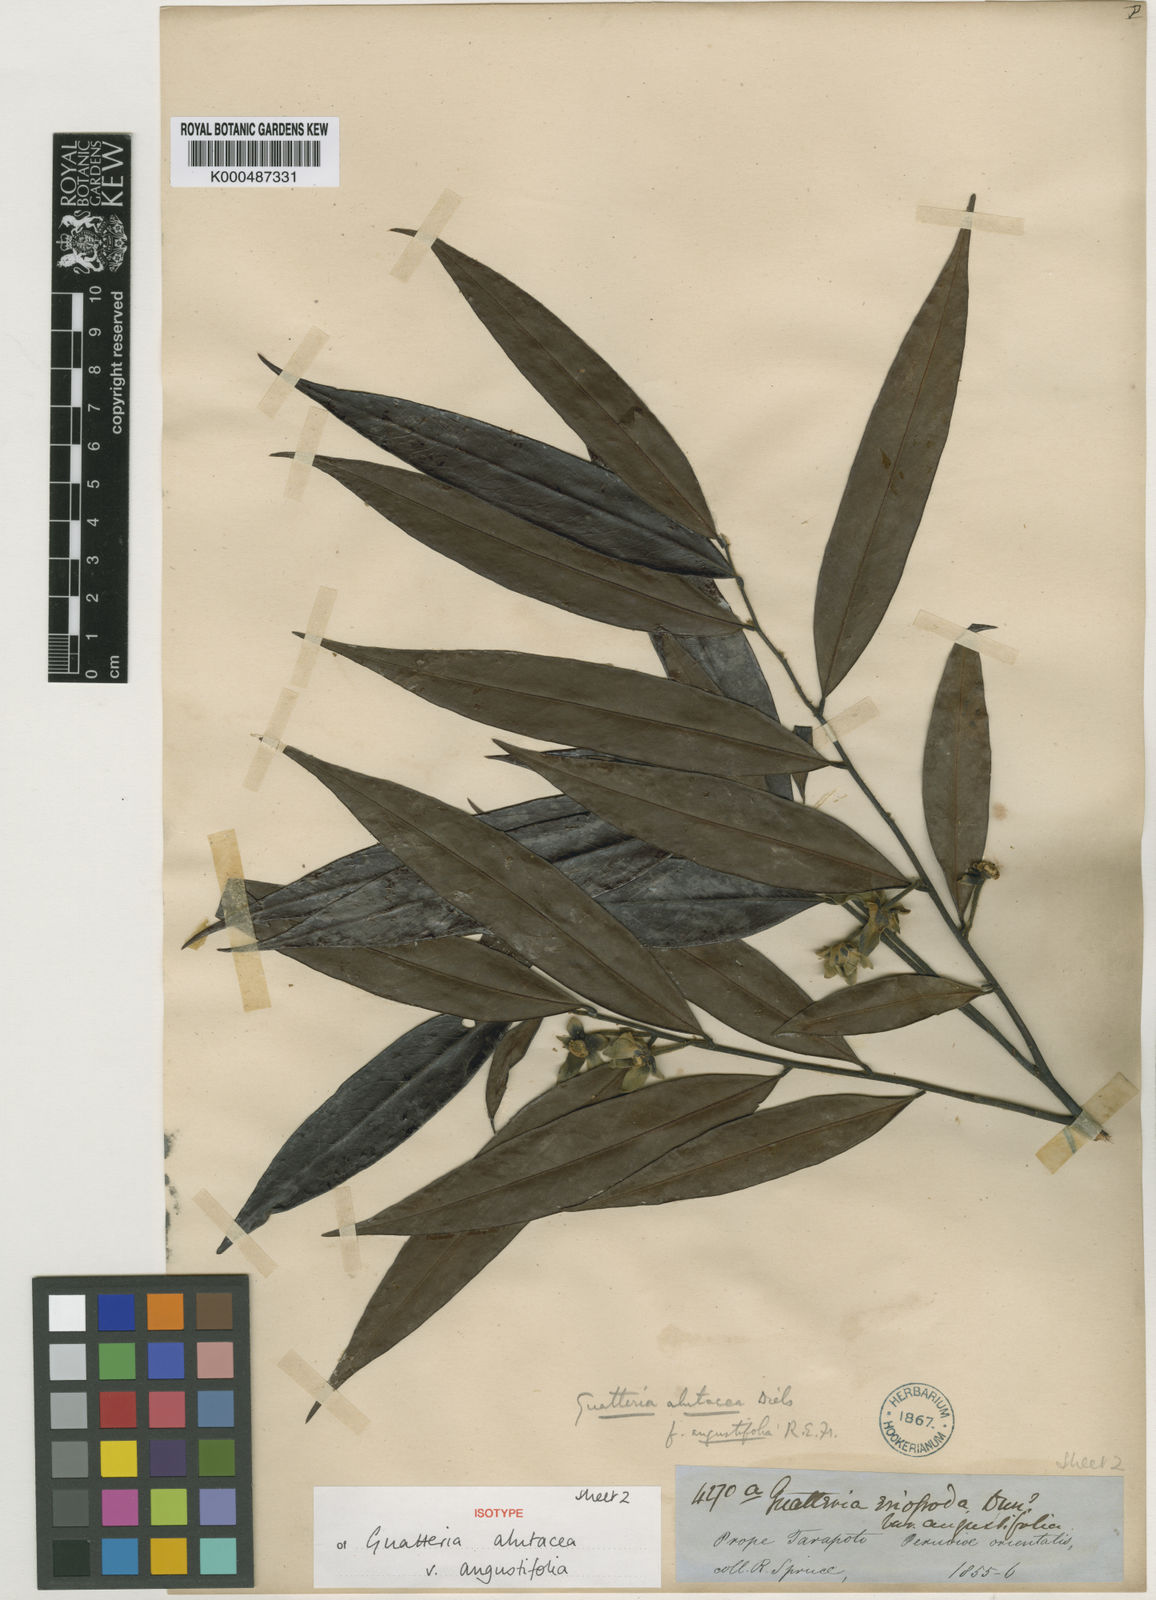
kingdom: Plantae
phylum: Tracheophyta
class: Magnoliopsida
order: Magnoliales
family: Annonaceae
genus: Guatteria
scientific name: Guatteria alutacea
